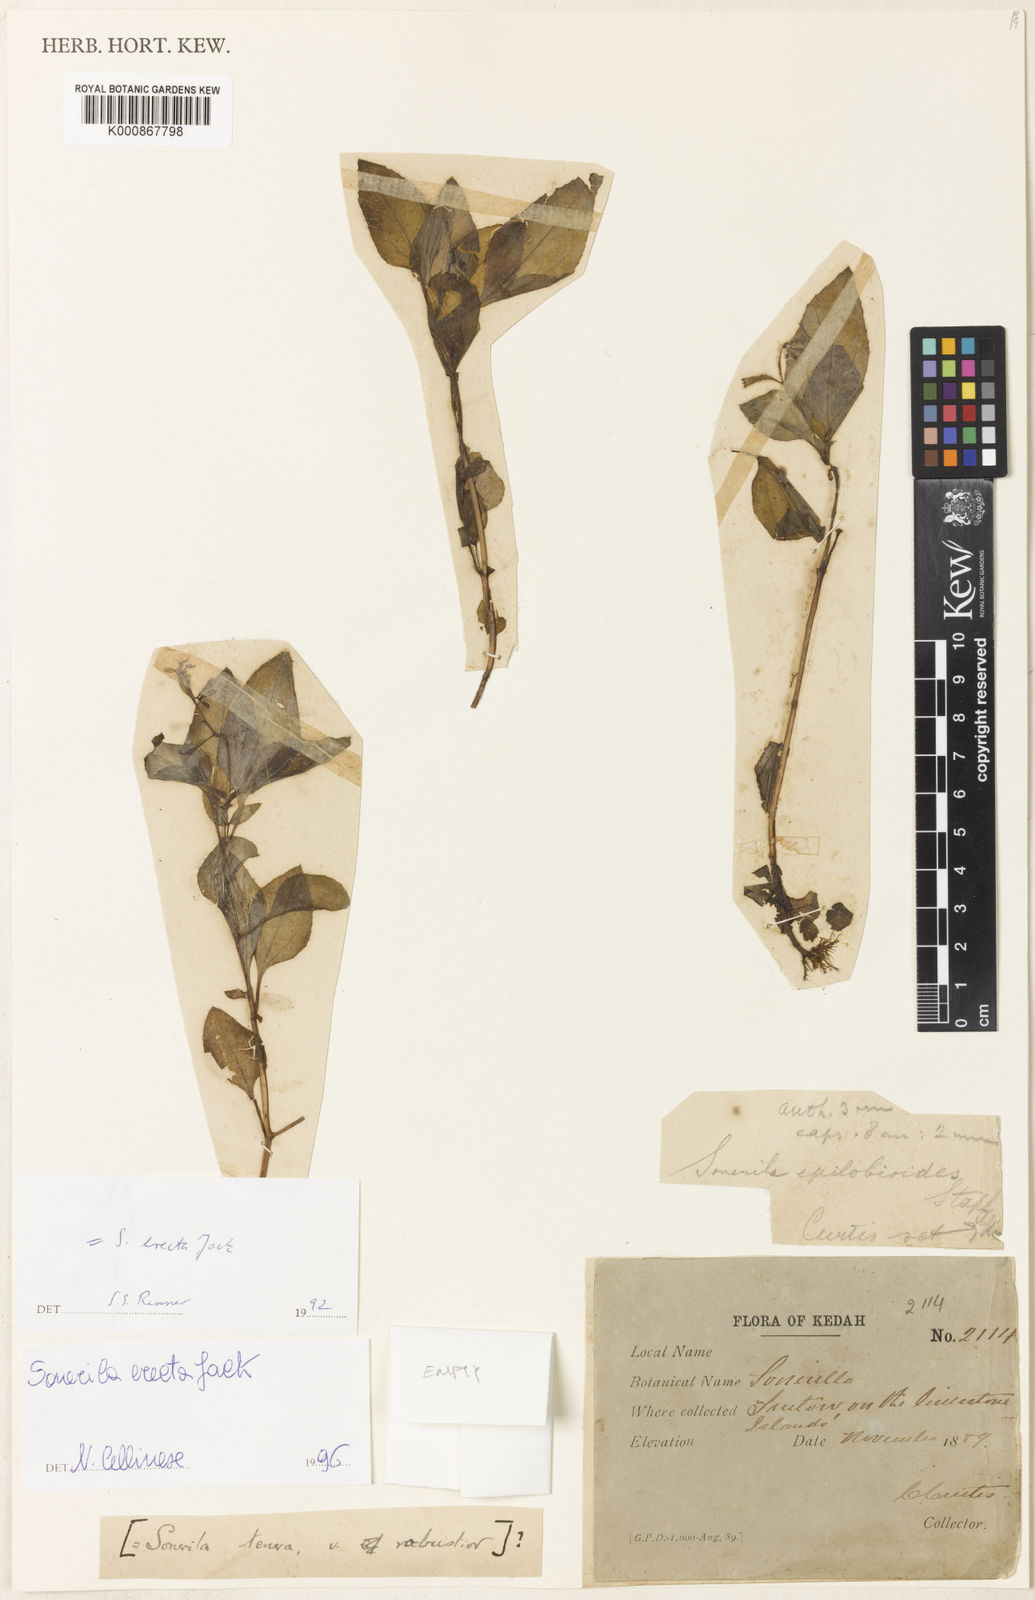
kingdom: Plantae
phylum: Tracheophyta
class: Magnoliopsida
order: Myrtales
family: Melastomataceae
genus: Sonerila
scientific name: Sonerila erecta
